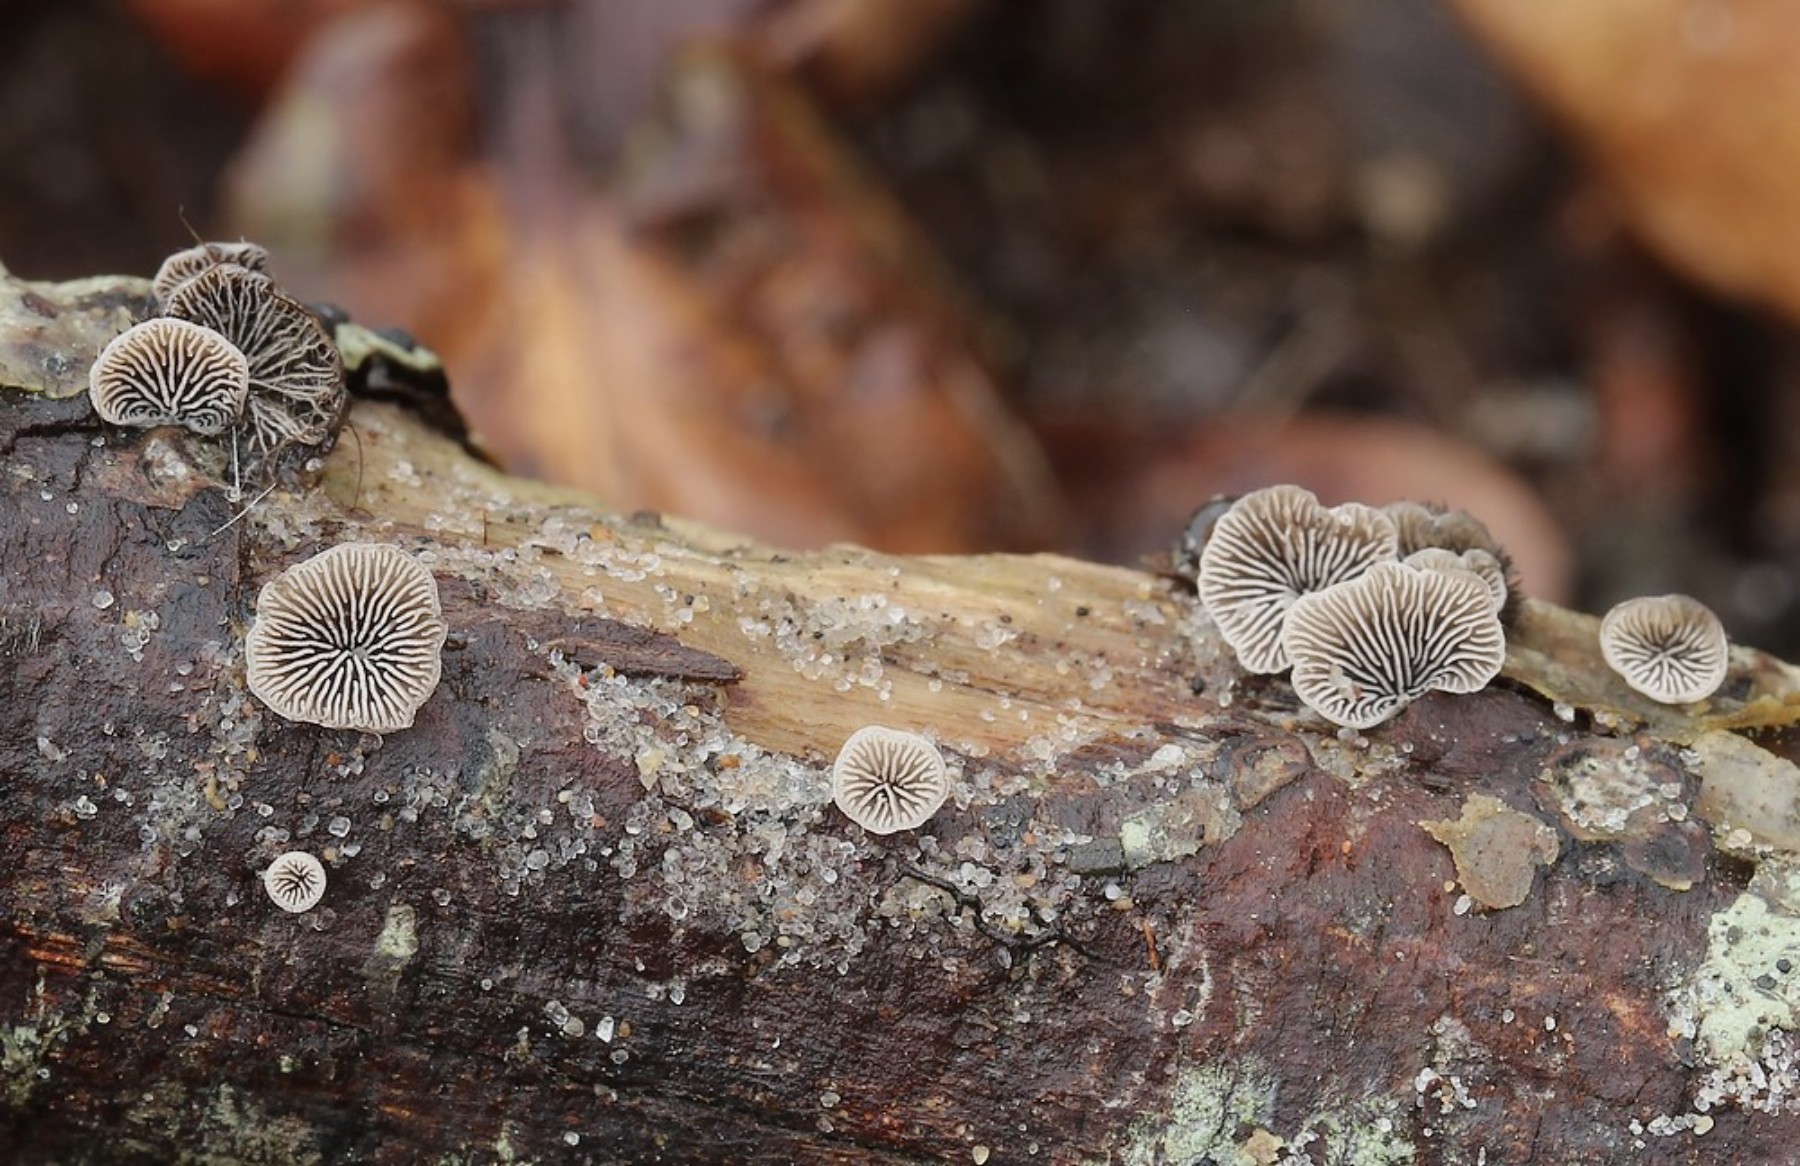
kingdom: Fungi
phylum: Basidiomycota
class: Agaricomycetes
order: Agaricales
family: Pleurotaceae
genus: Resupinatus
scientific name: Resupinatus trichotis
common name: mørkfiltet barkhat
